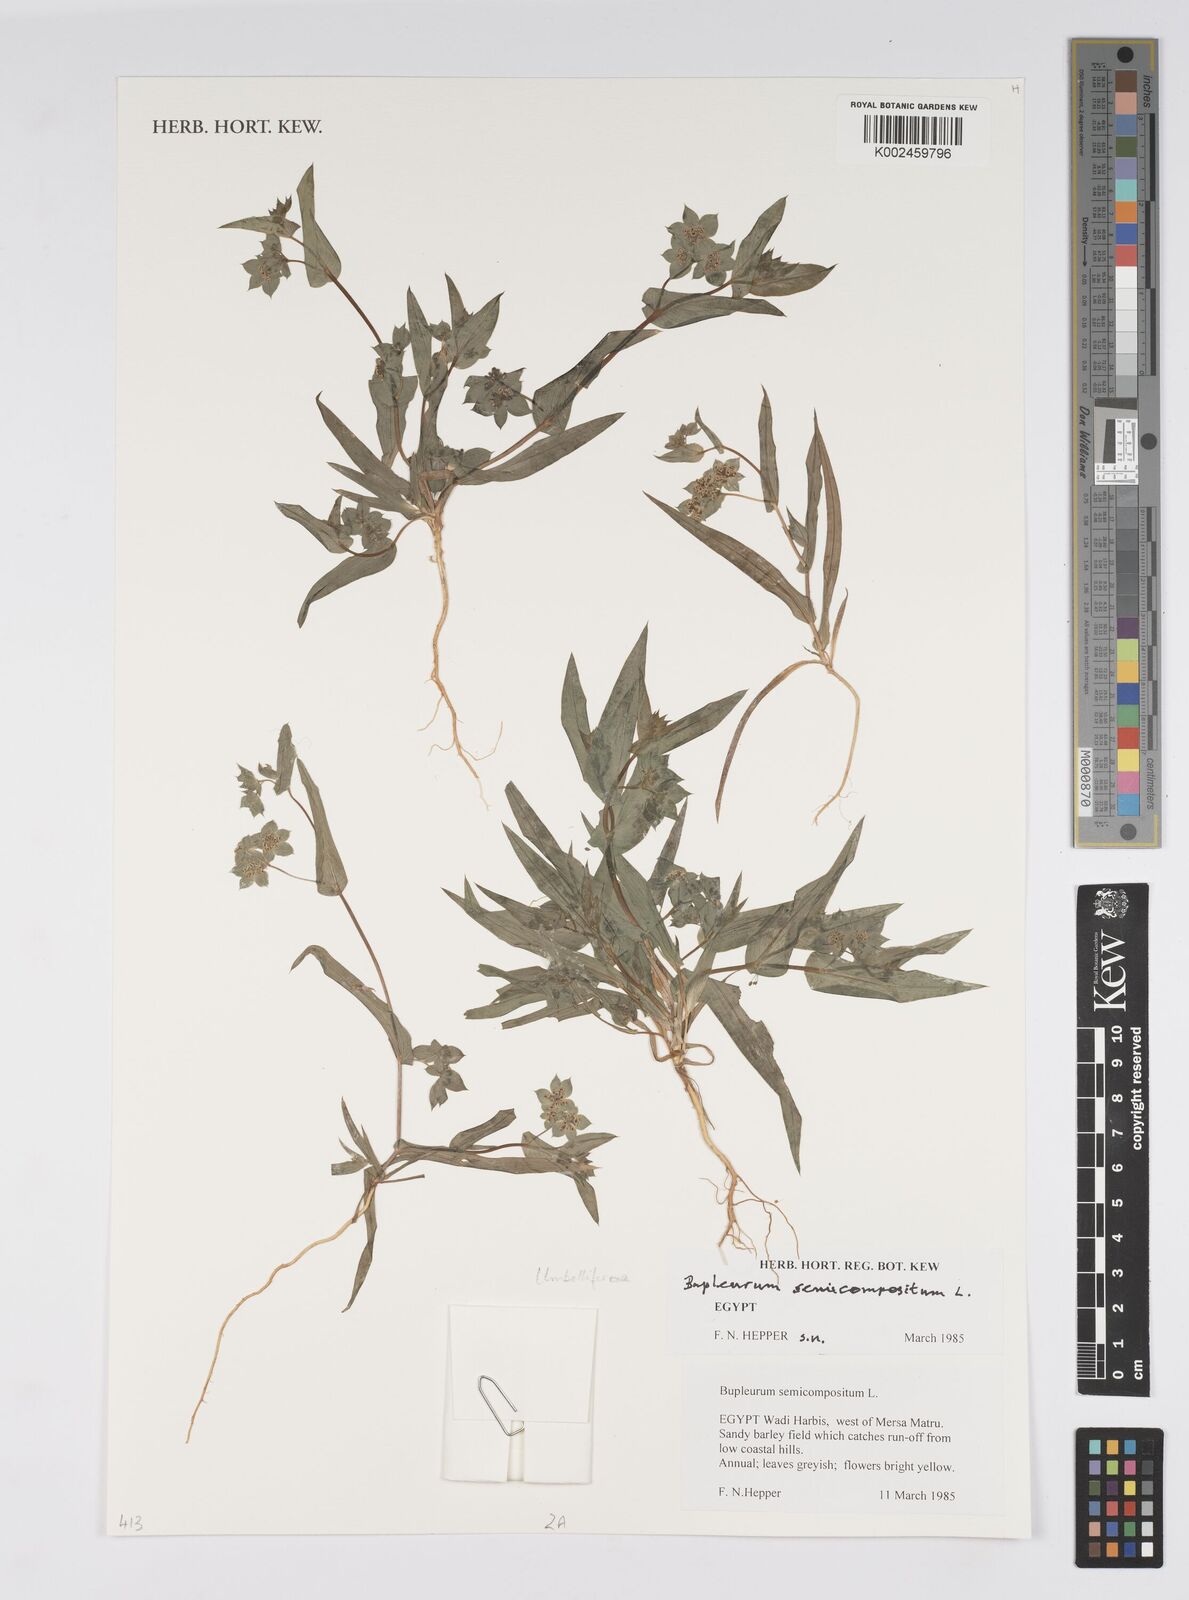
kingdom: Plantae
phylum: Tracheophyta
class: Magnoliopsida
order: Apiales
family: Apiaceae
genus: Bupleurum
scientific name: Bupleurum semicompositum
